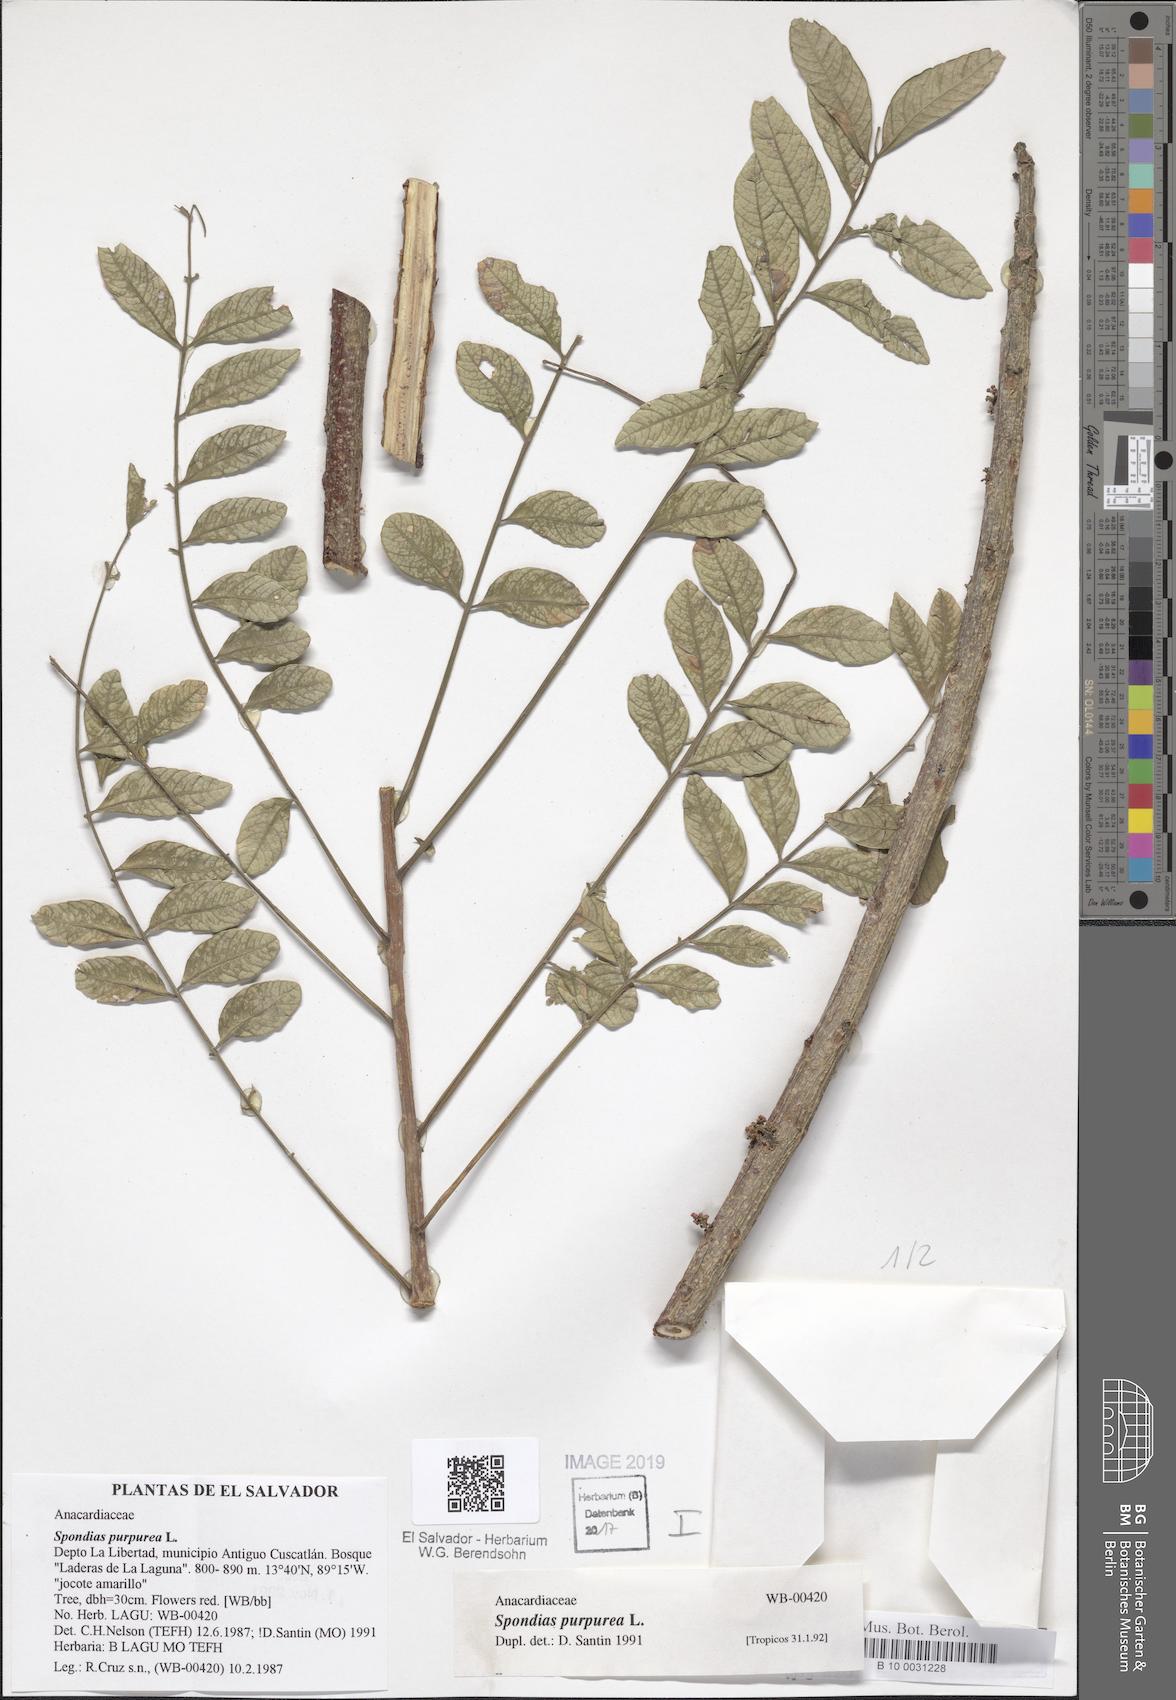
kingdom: Plantae
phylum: Tracheophyta
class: Magnoliopsida
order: Sapindales
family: Anacardiaceae
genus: Spondias
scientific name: Spondias purpurea
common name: Purple mombin
